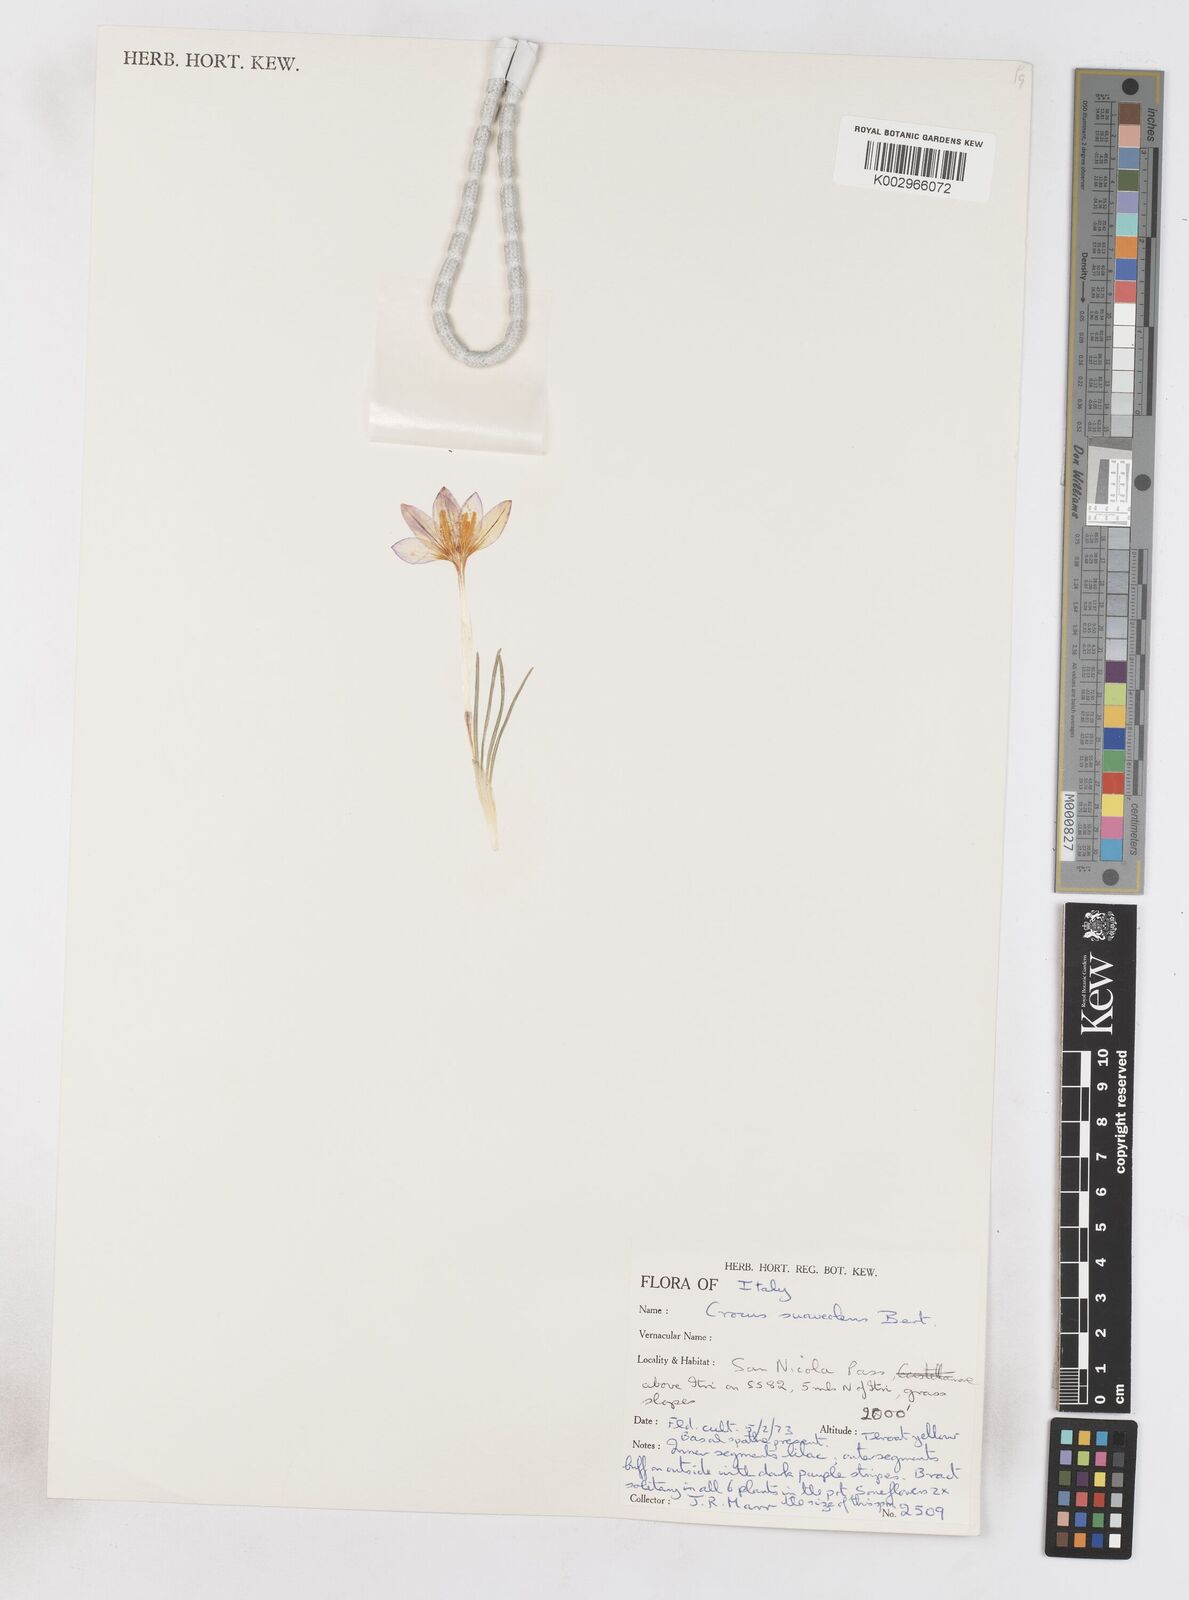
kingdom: Plantae
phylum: Tracheophyta
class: Liliopsida
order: Asparagales
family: Iridaceae
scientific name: Iridaceae
